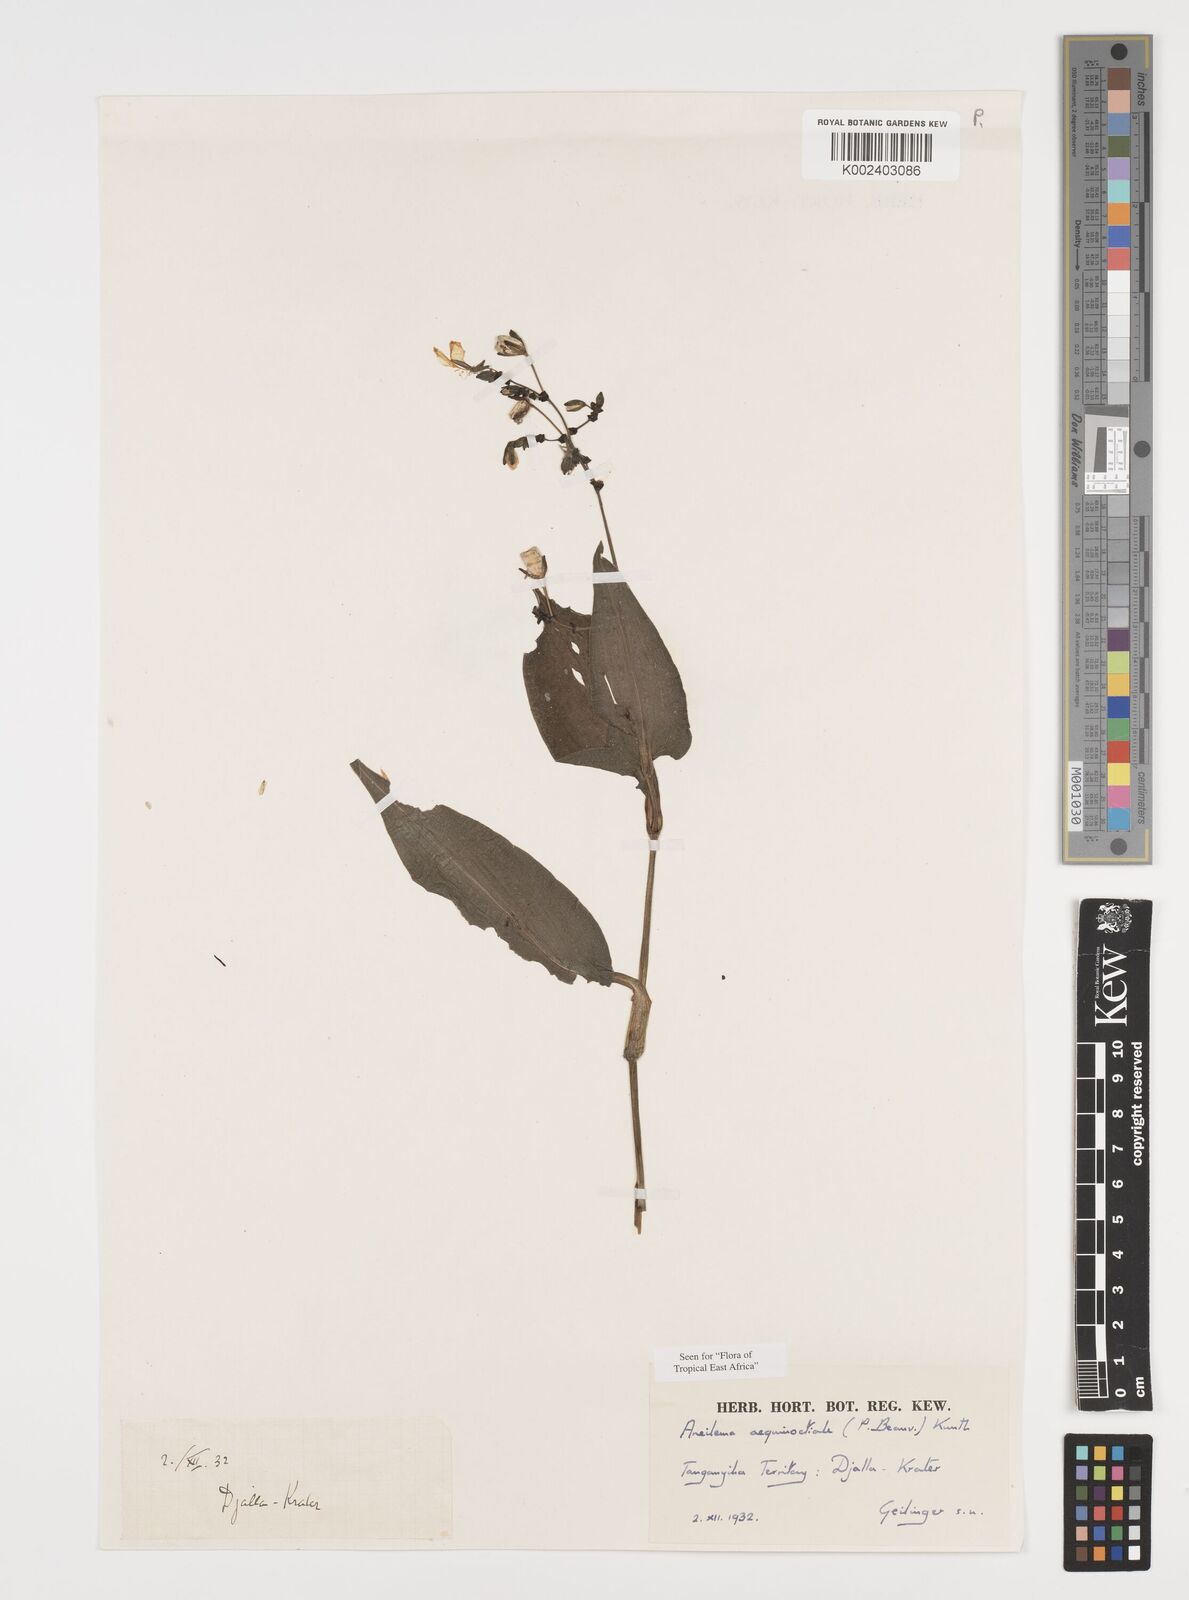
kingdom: Plantae
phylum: Tracheophyta
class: Liliopsida
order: Commelinales
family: Commelinaceae
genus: Aneilema
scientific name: Aneilema aequinoctiale
